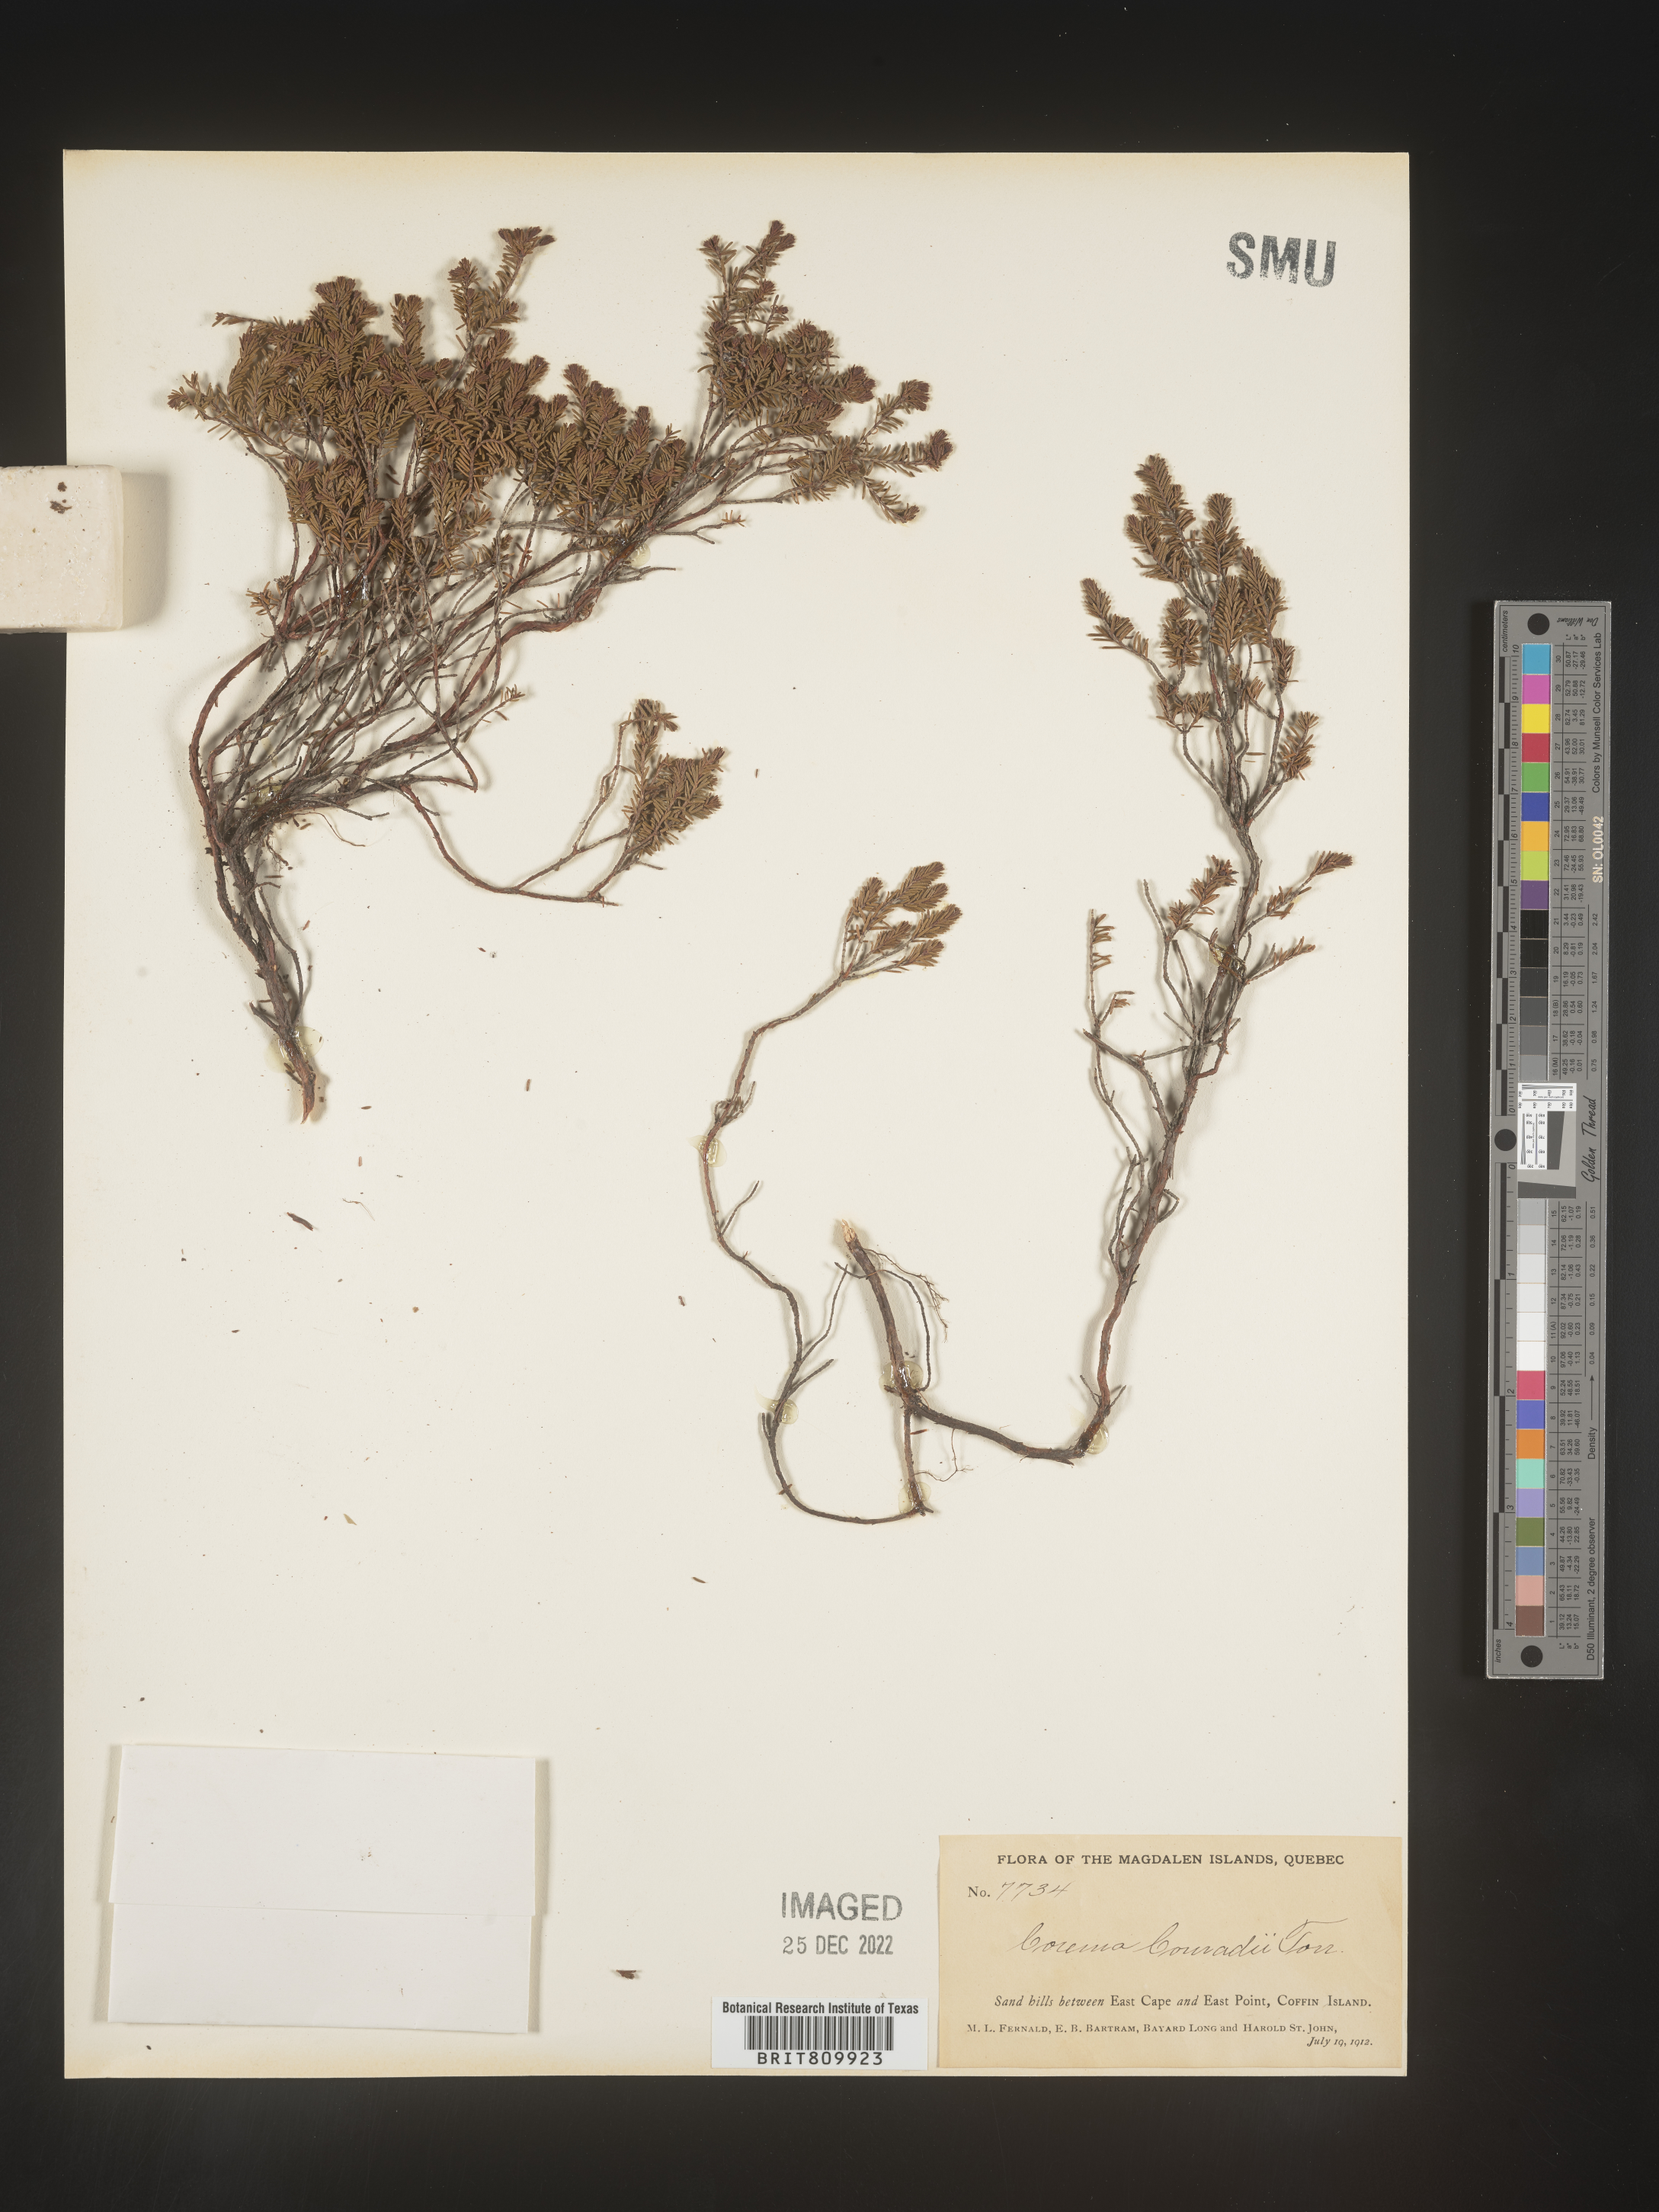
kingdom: Plantae
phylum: Tracheophyta
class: Magnoliopsida
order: Ericales
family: Ericaceae
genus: Corema
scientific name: Corema
